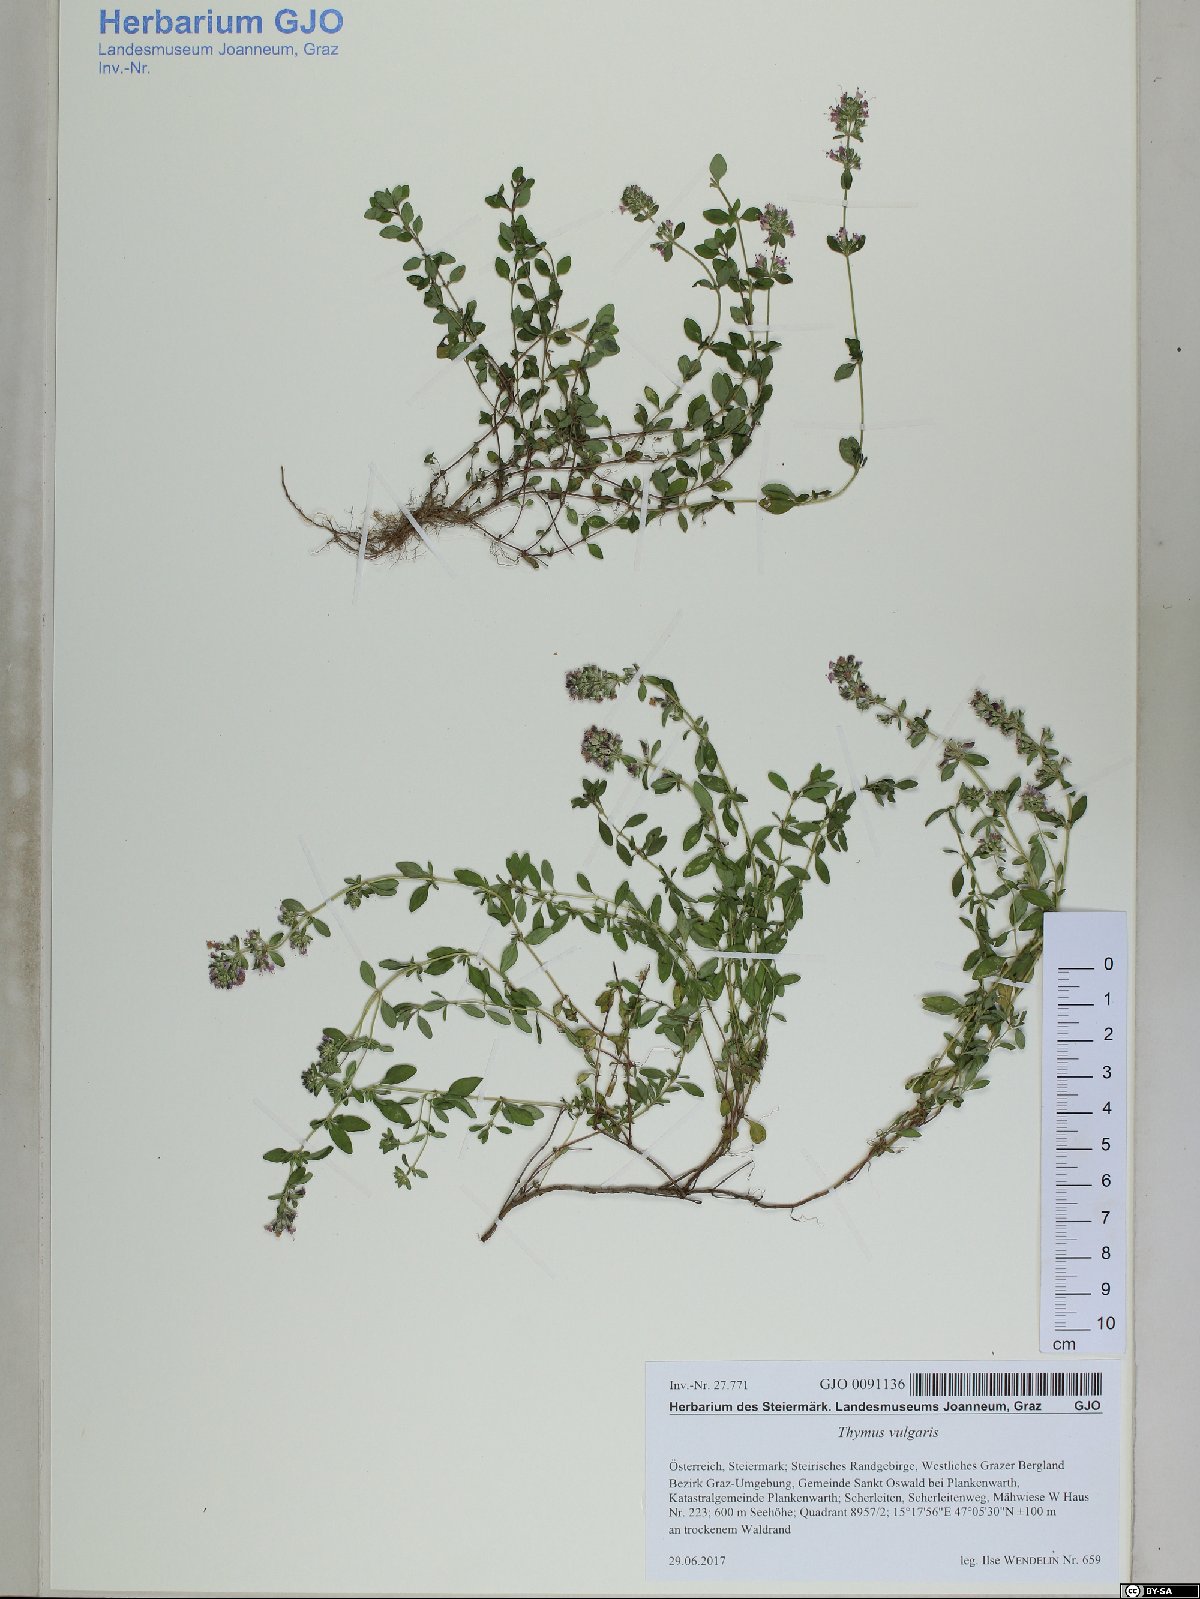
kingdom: Plantae
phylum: Tracheophyta
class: Magnoliopsida
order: Lamiales
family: Lamiaceae
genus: Thymus
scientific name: Thymus vulgaris
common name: Garden thyme
